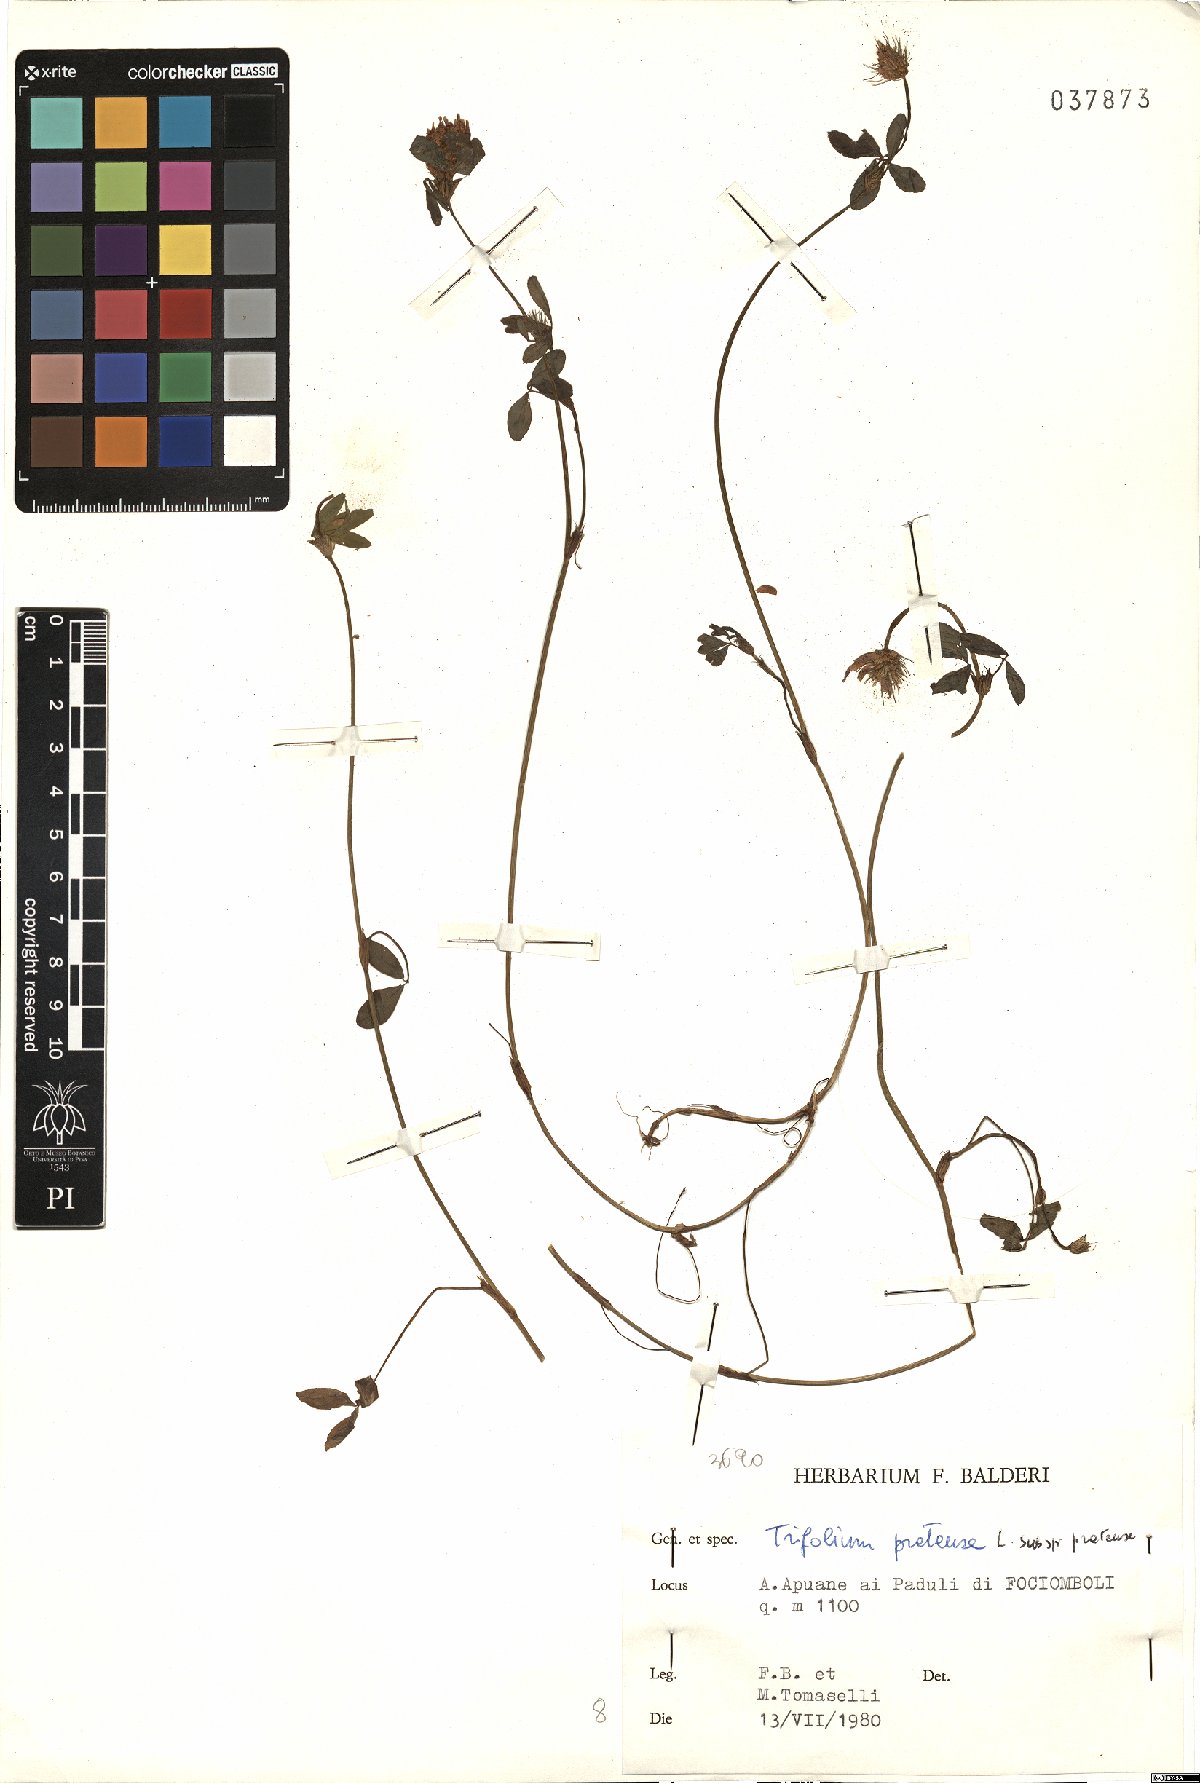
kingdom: Plantae
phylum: Tracheophyta
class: Magnoliopsida
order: Fabales
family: Fabaceae
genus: Trifolium
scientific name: Trifolium pratense
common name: Red clover
